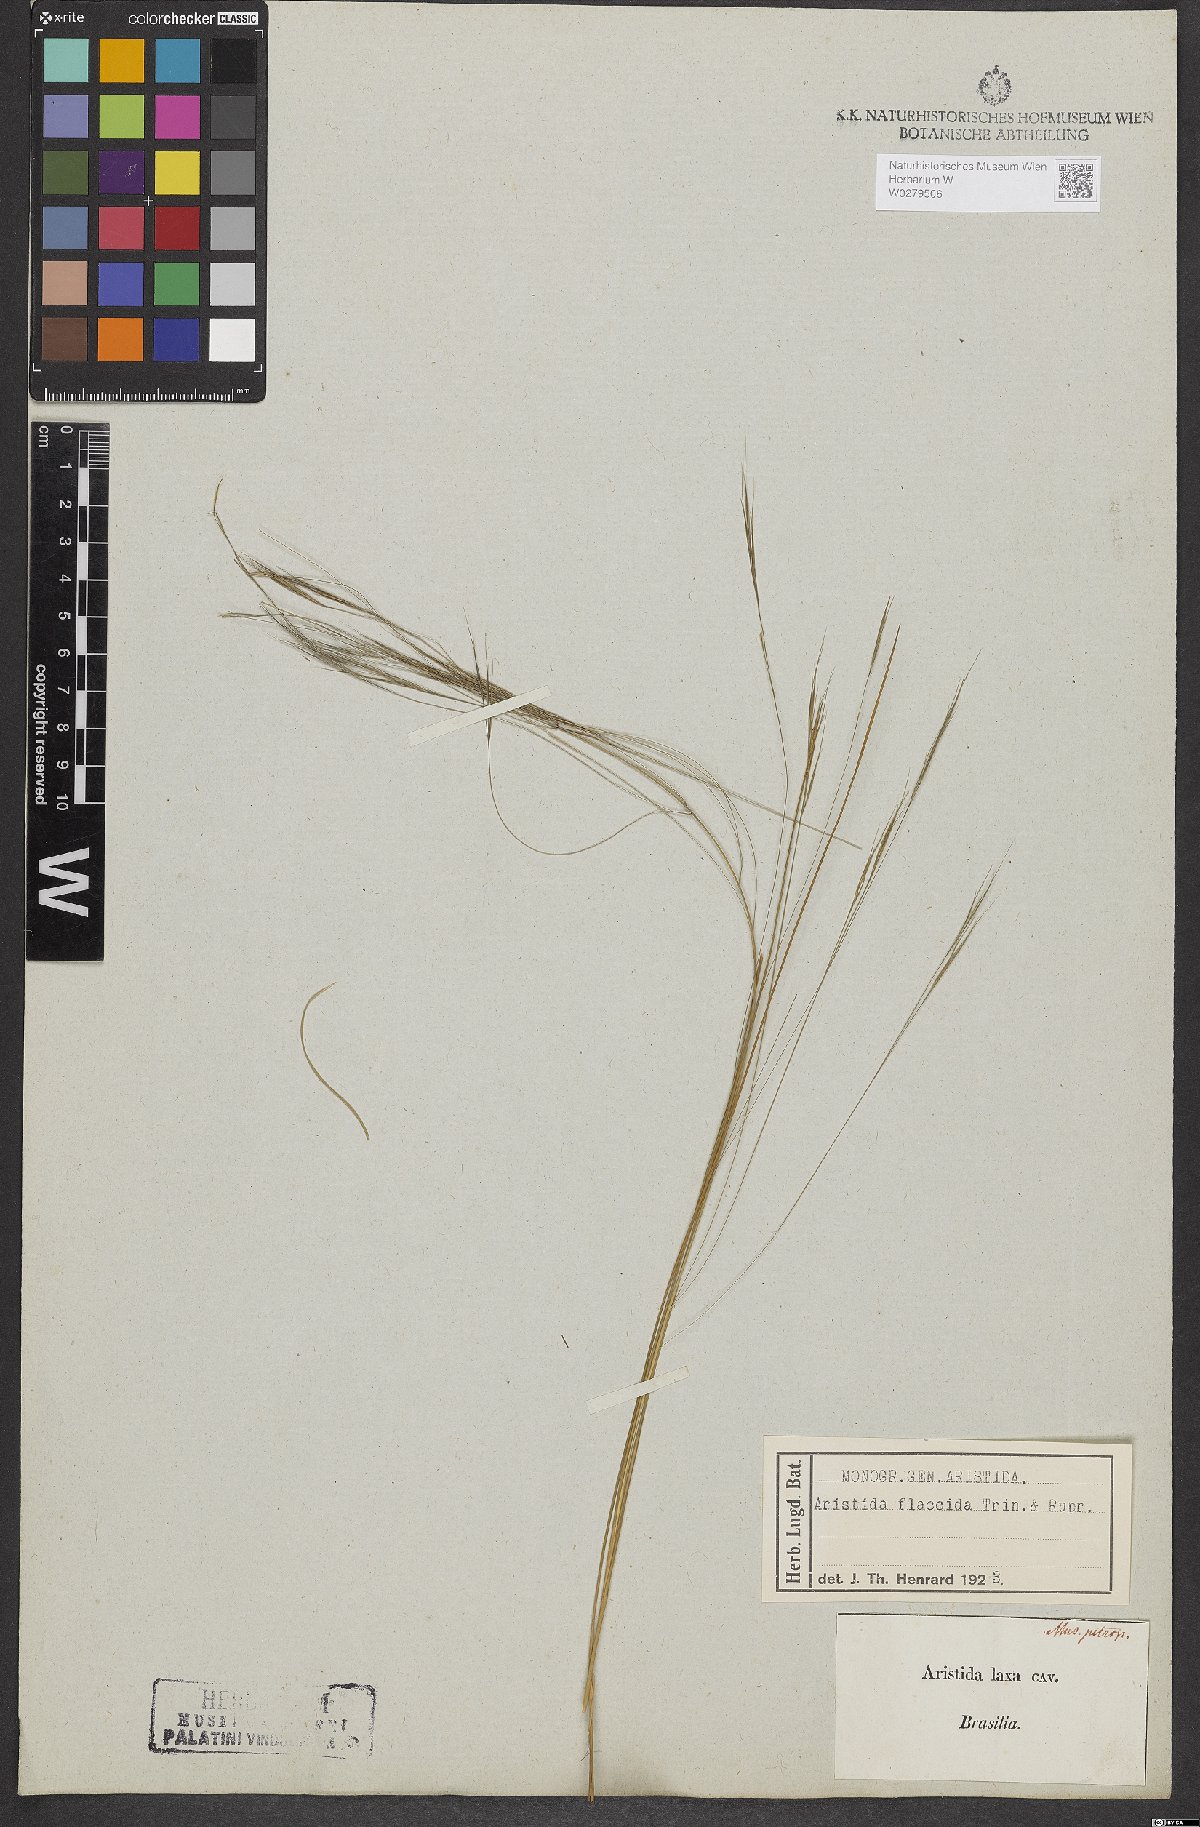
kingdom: Plantae
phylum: Tracheophyta
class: Liliopsida
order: Poales
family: Poaceae
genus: Aristida
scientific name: Aristida flaccida
